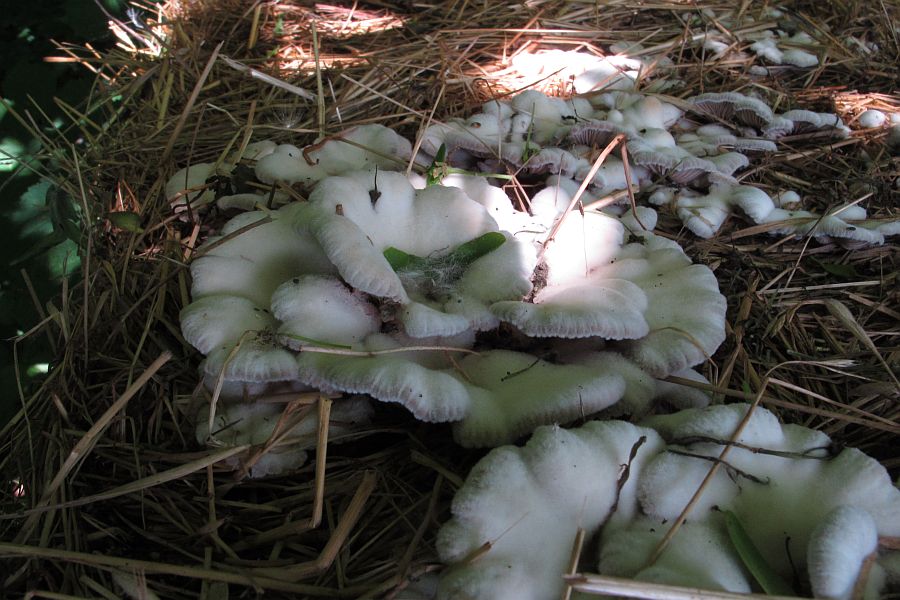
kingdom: Fungi
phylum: Basidiomycota
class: Agaricomycetes
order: Agaricales
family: Schizophyllaceae
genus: Schizophyllum
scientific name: Schizophyllum commune
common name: kløvblad
